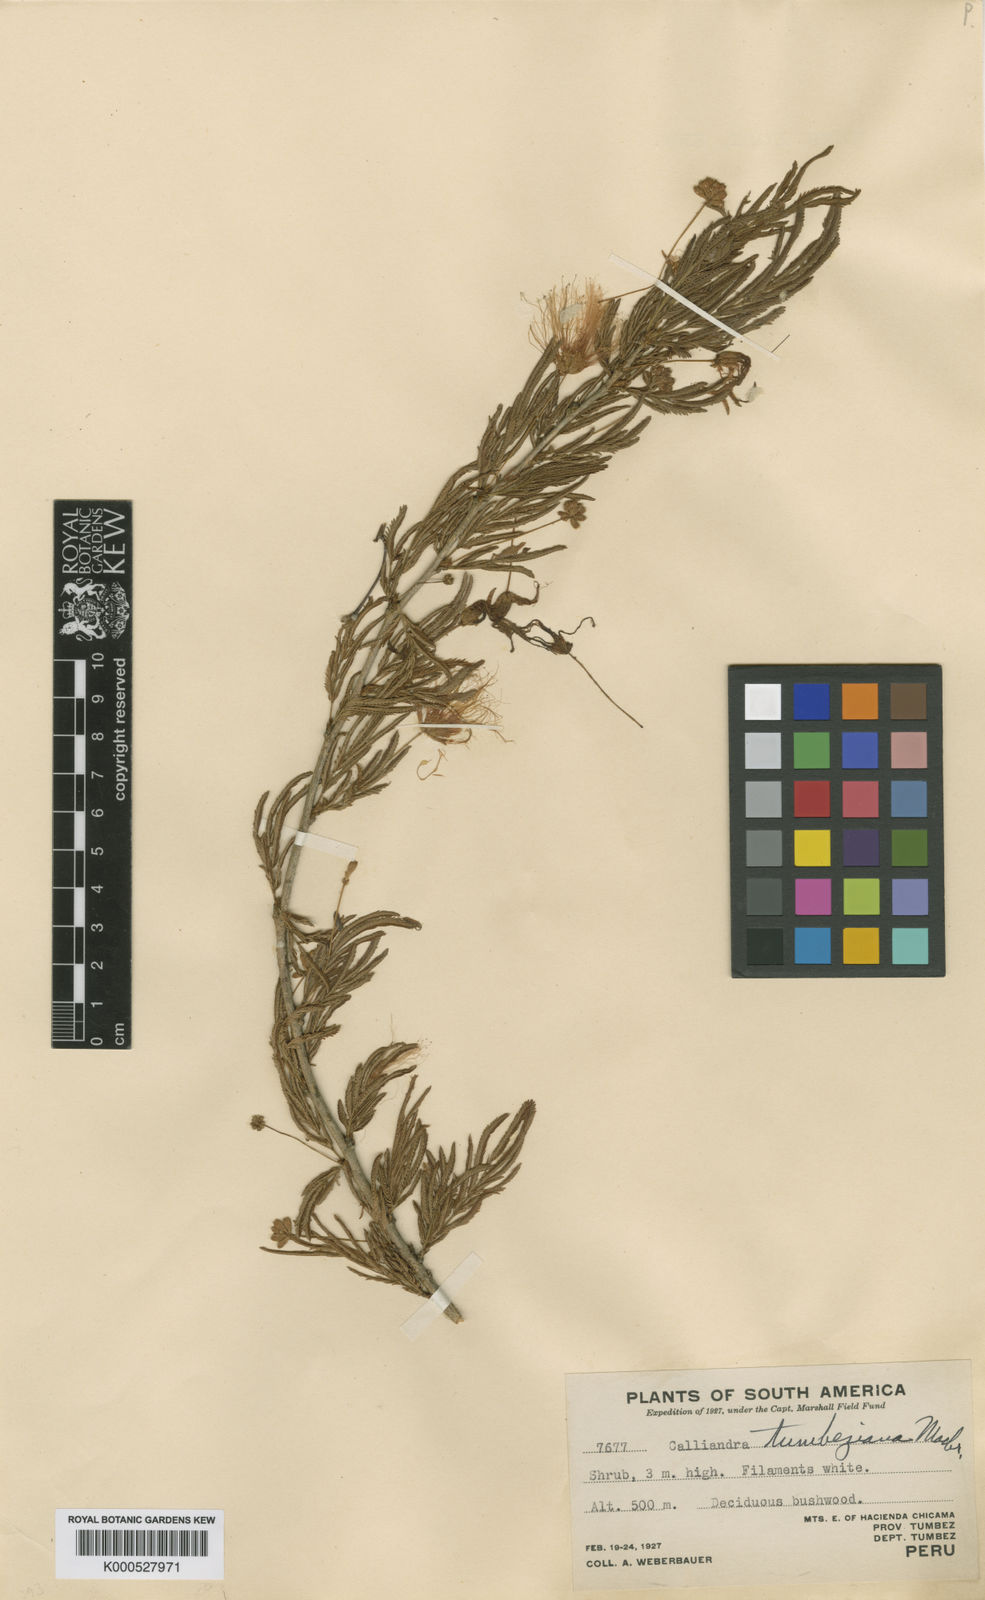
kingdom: Plantae
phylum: Tracheophyta
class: Magnoliopsida
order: Fabales
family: Fabaceae
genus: Calliandra
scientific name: Calliandra tumbeziana
